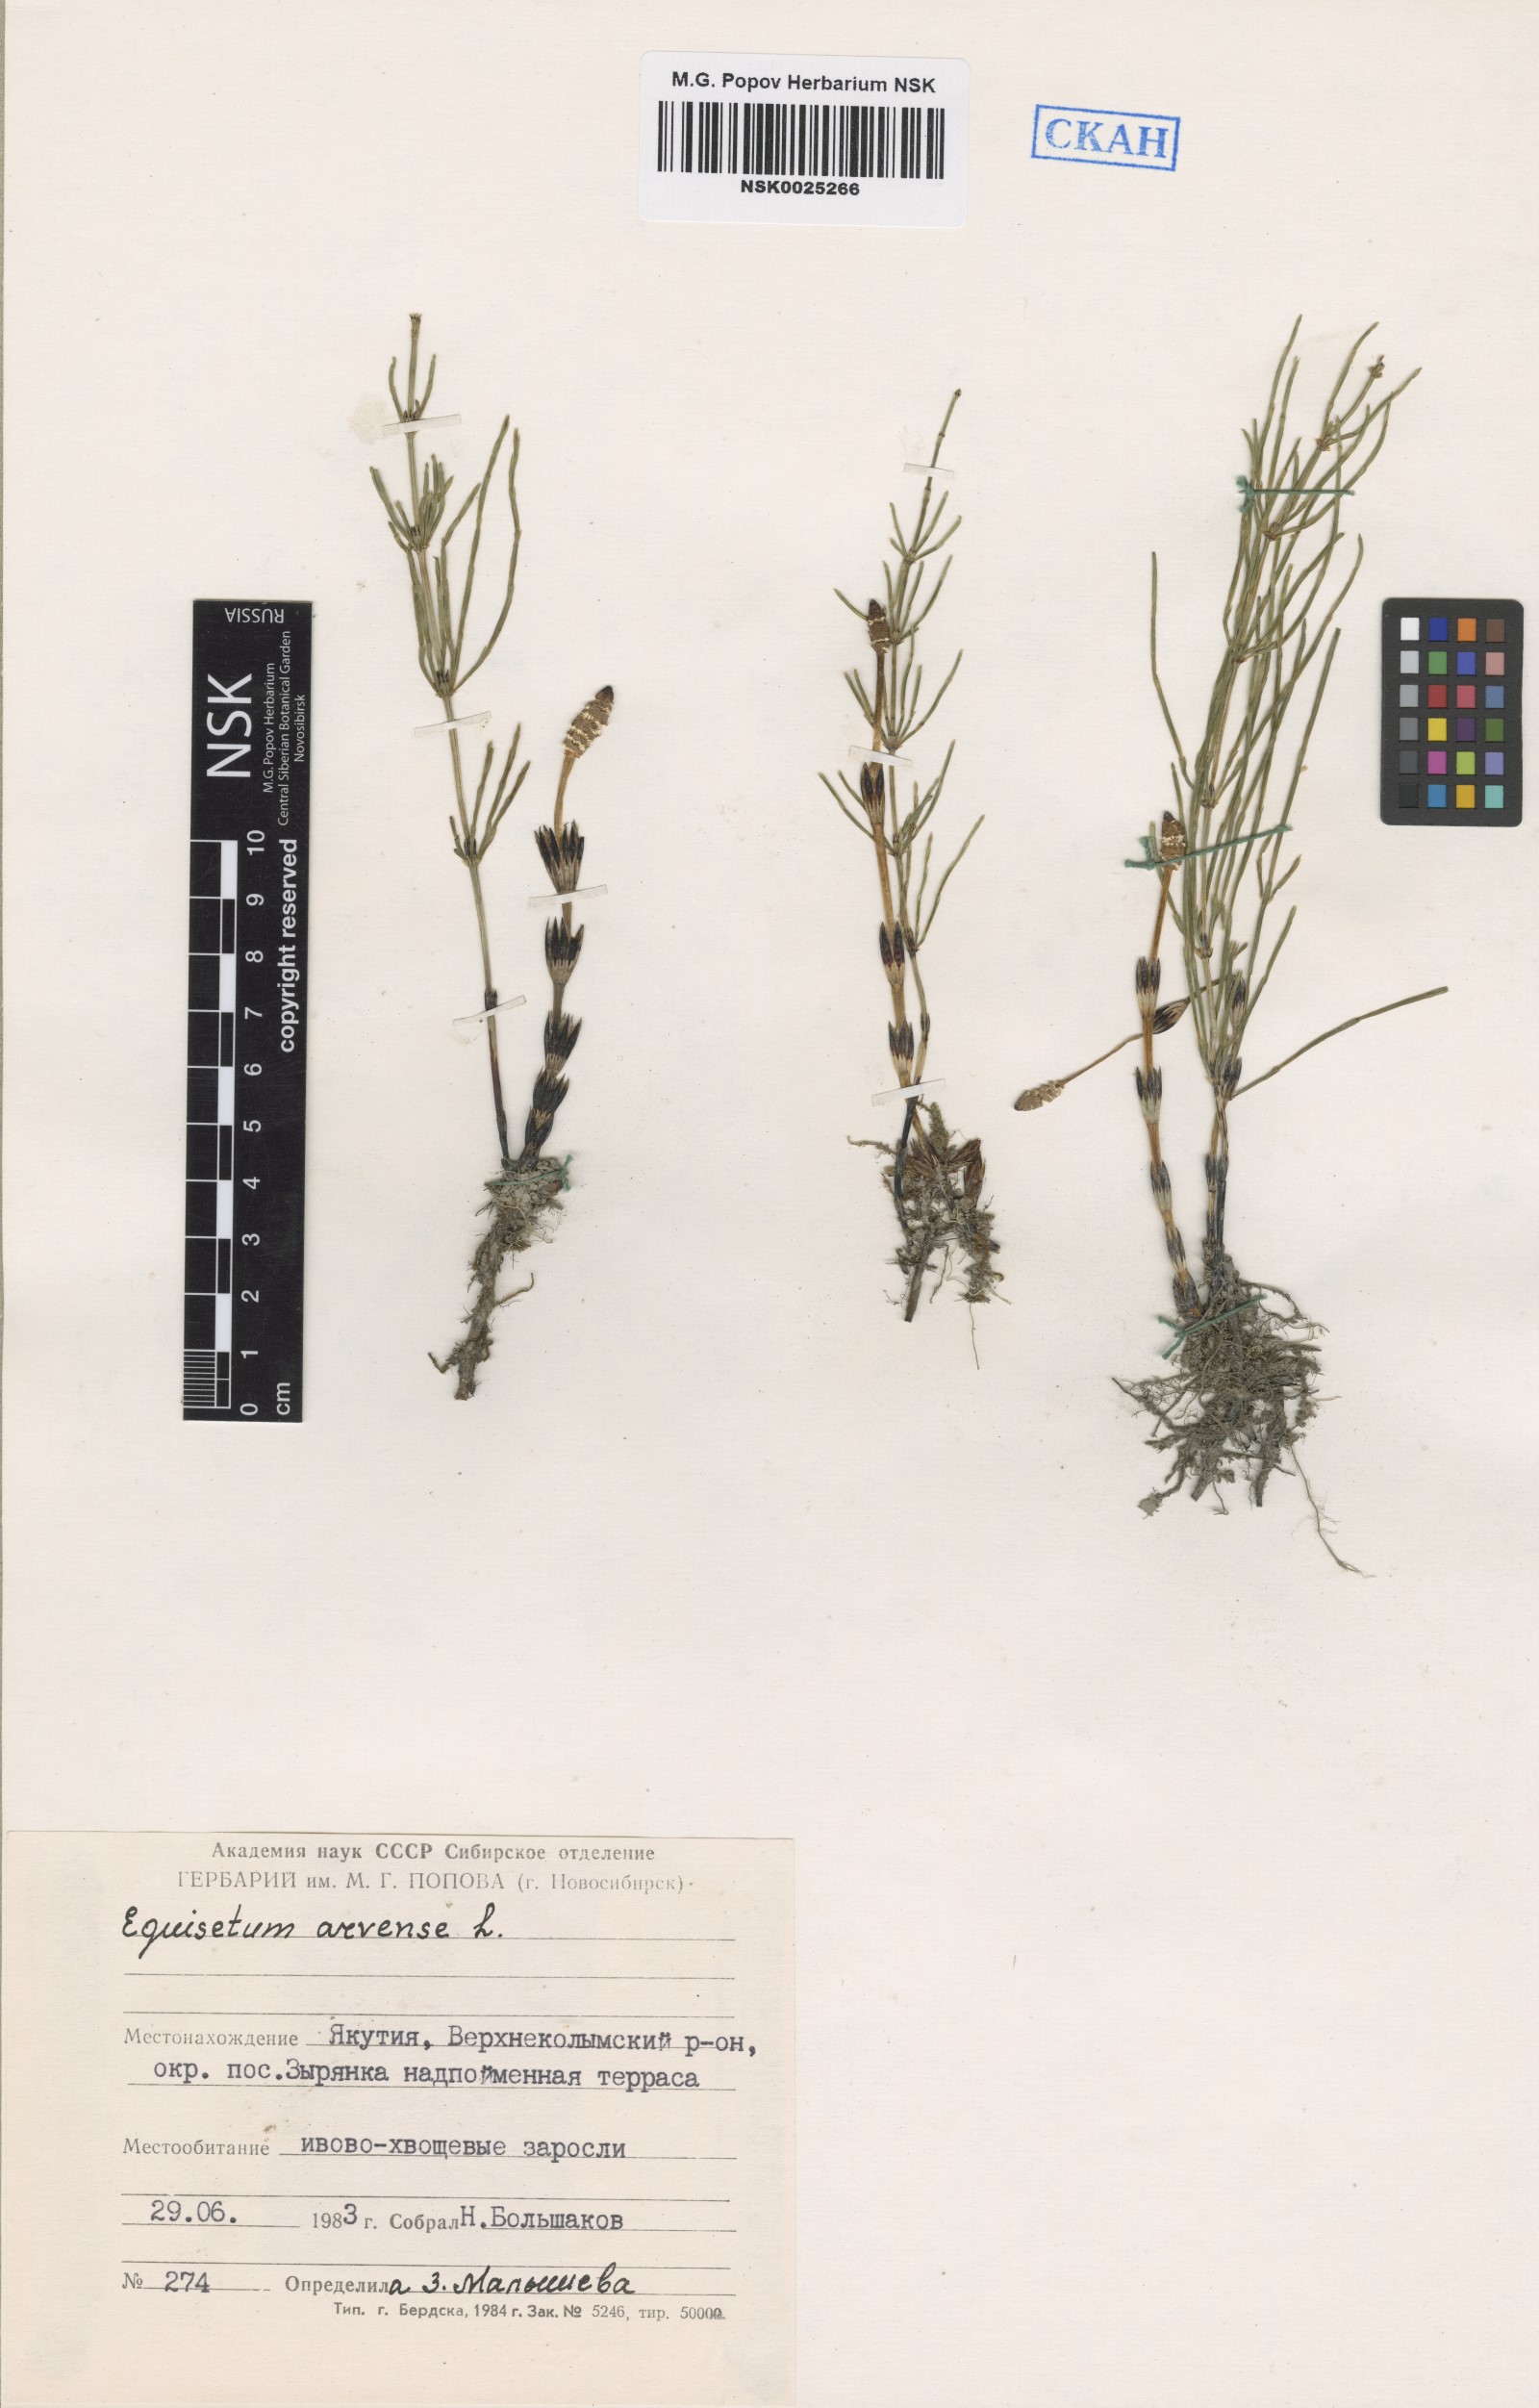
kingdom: Plantae
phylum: Tracheophyta
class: Polypodiopsida
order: Equisetales
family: Equisetaceae
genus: Equisetum
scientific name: Equisetum arvense
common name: Field horsetail
